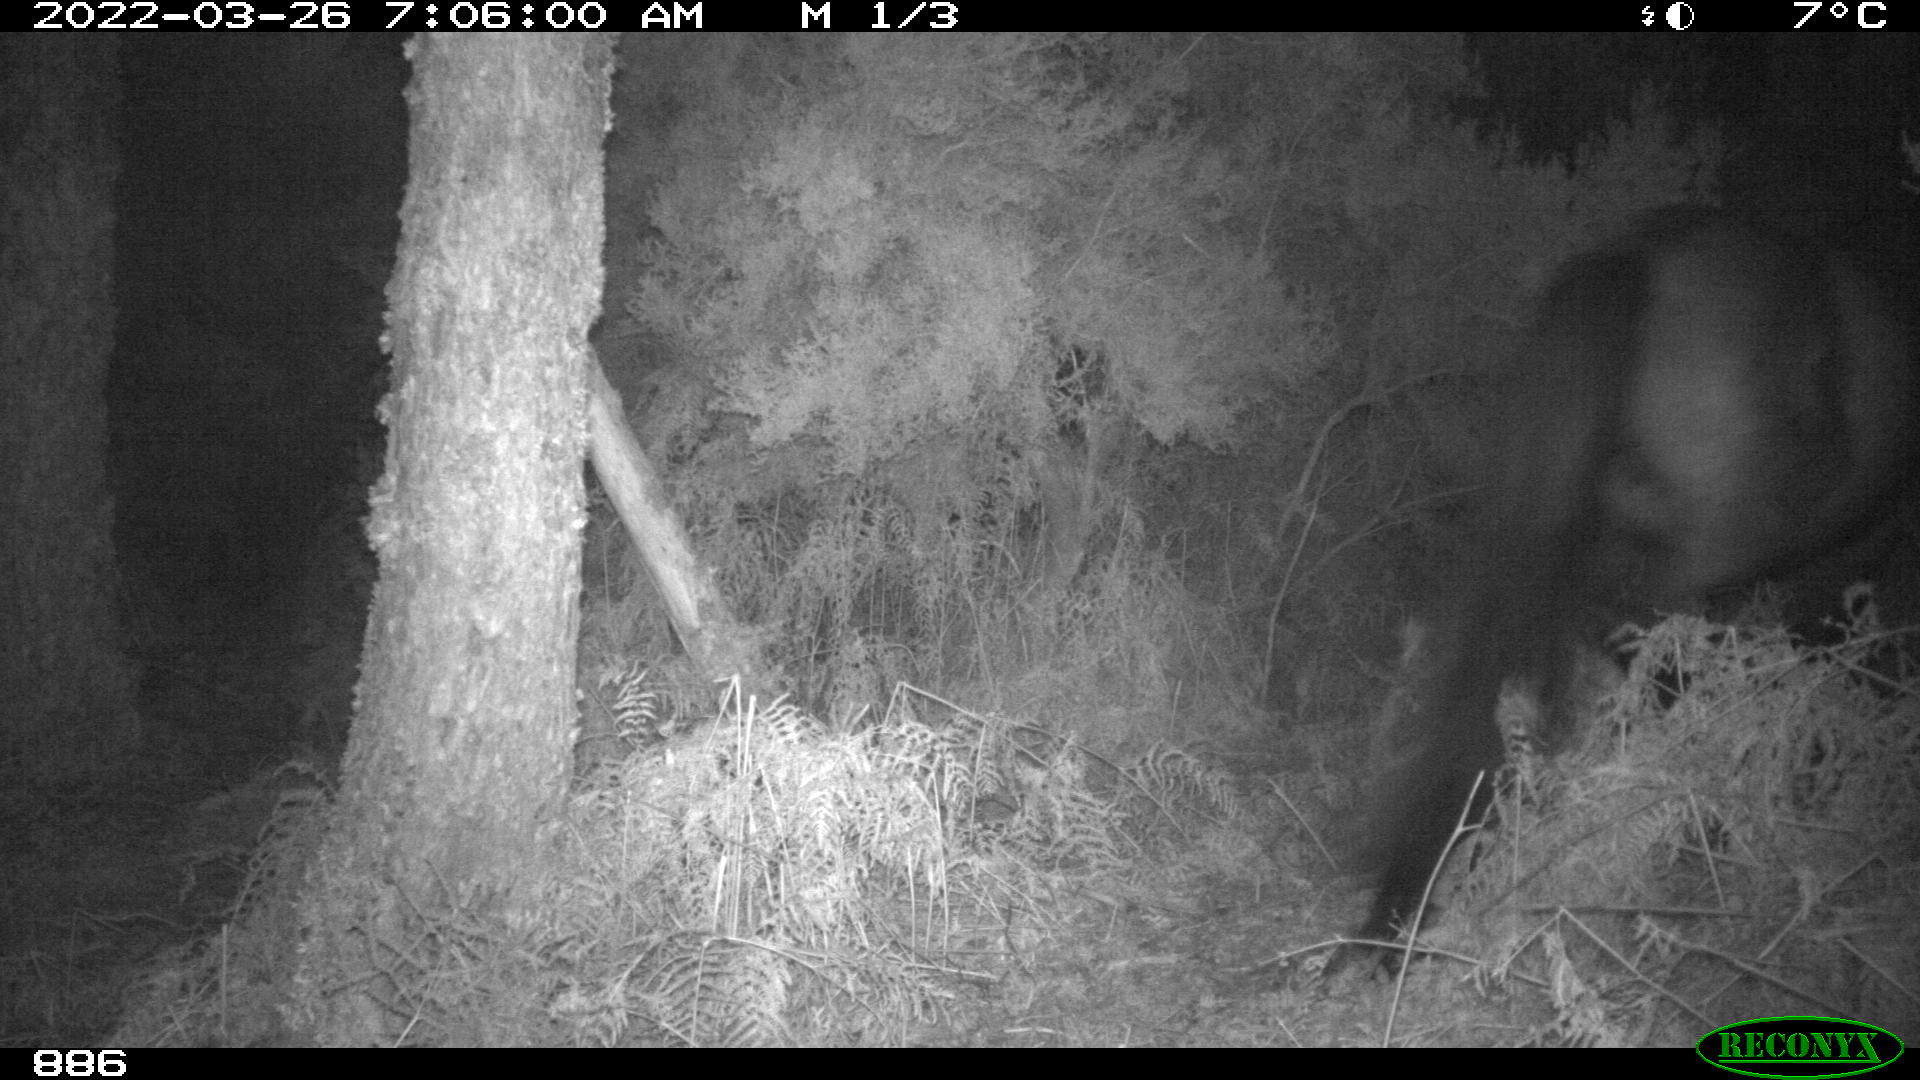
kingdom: Animalia
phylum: Chordata
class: Mammalia
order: Perissodactyla
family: Equidae
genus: Equus
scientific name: Equus caballus
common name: Horse
